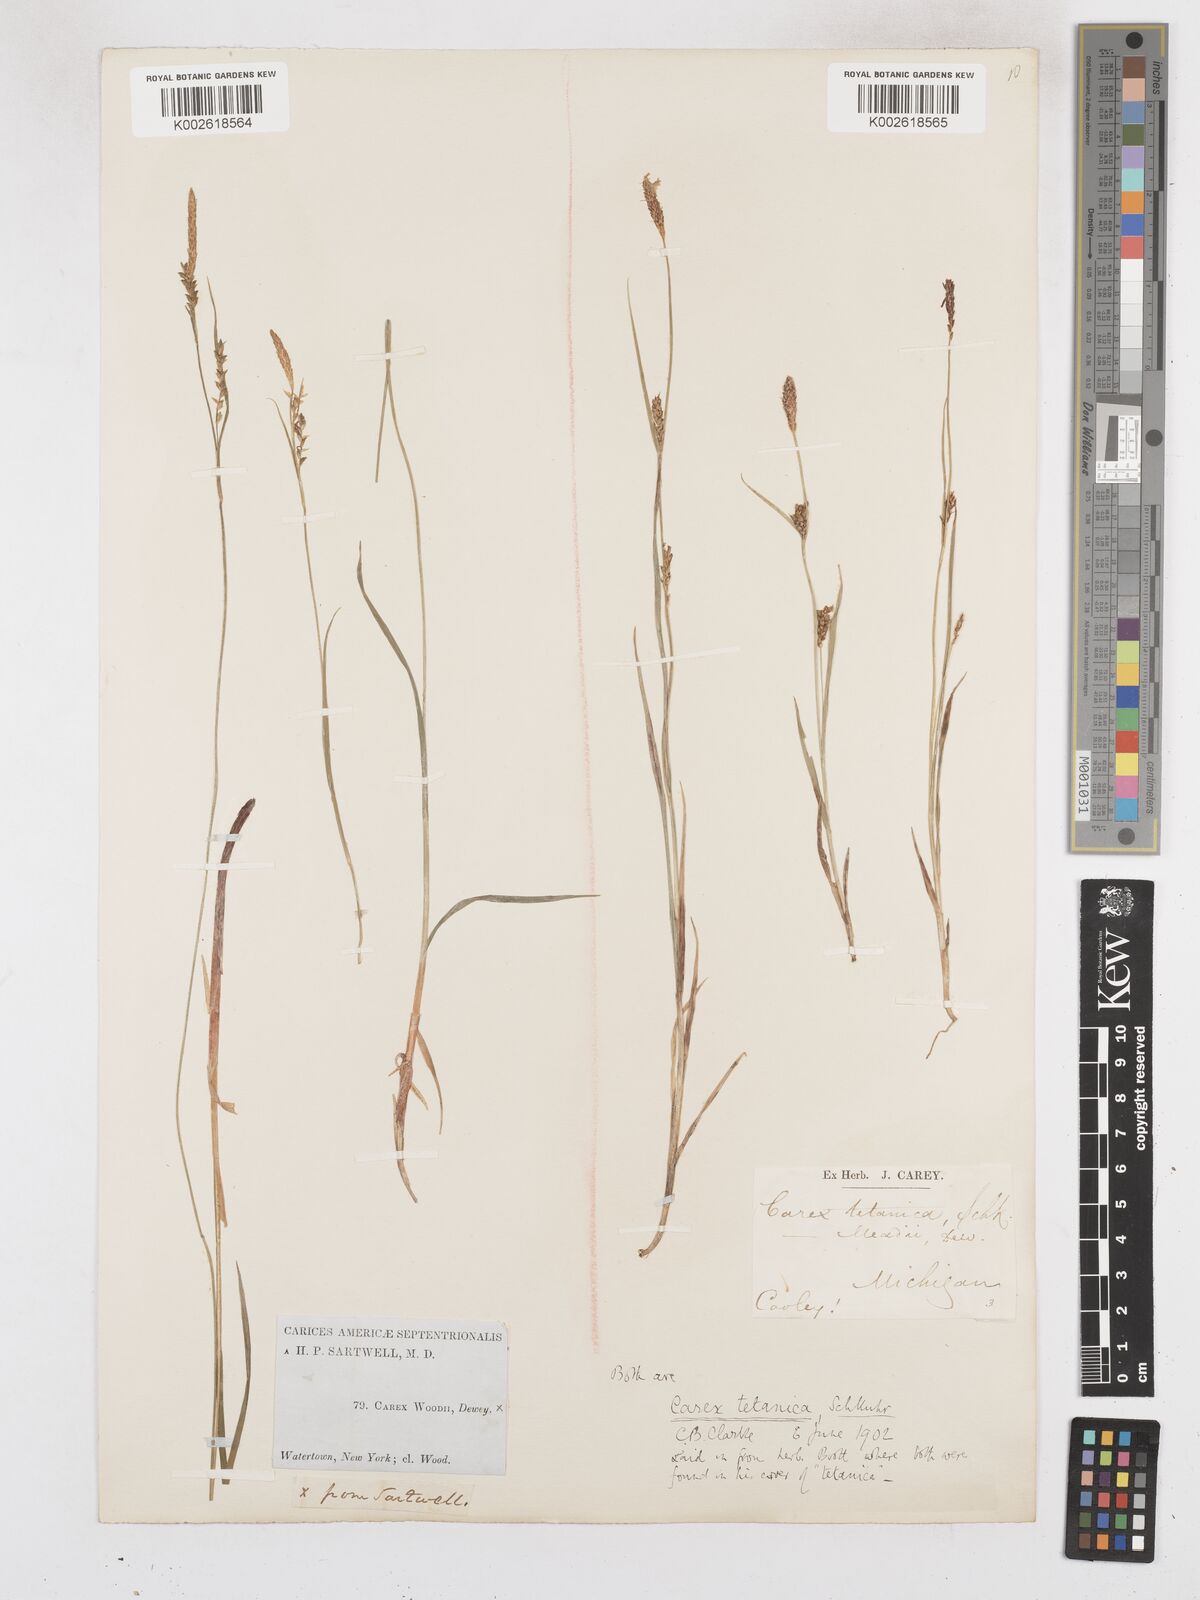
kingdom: Plantae
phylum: Tracheophyta
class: Liliopsida
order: Poales
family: Cyperaceae
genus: Carex
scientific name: Carex woodii
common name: Wood's sedge
